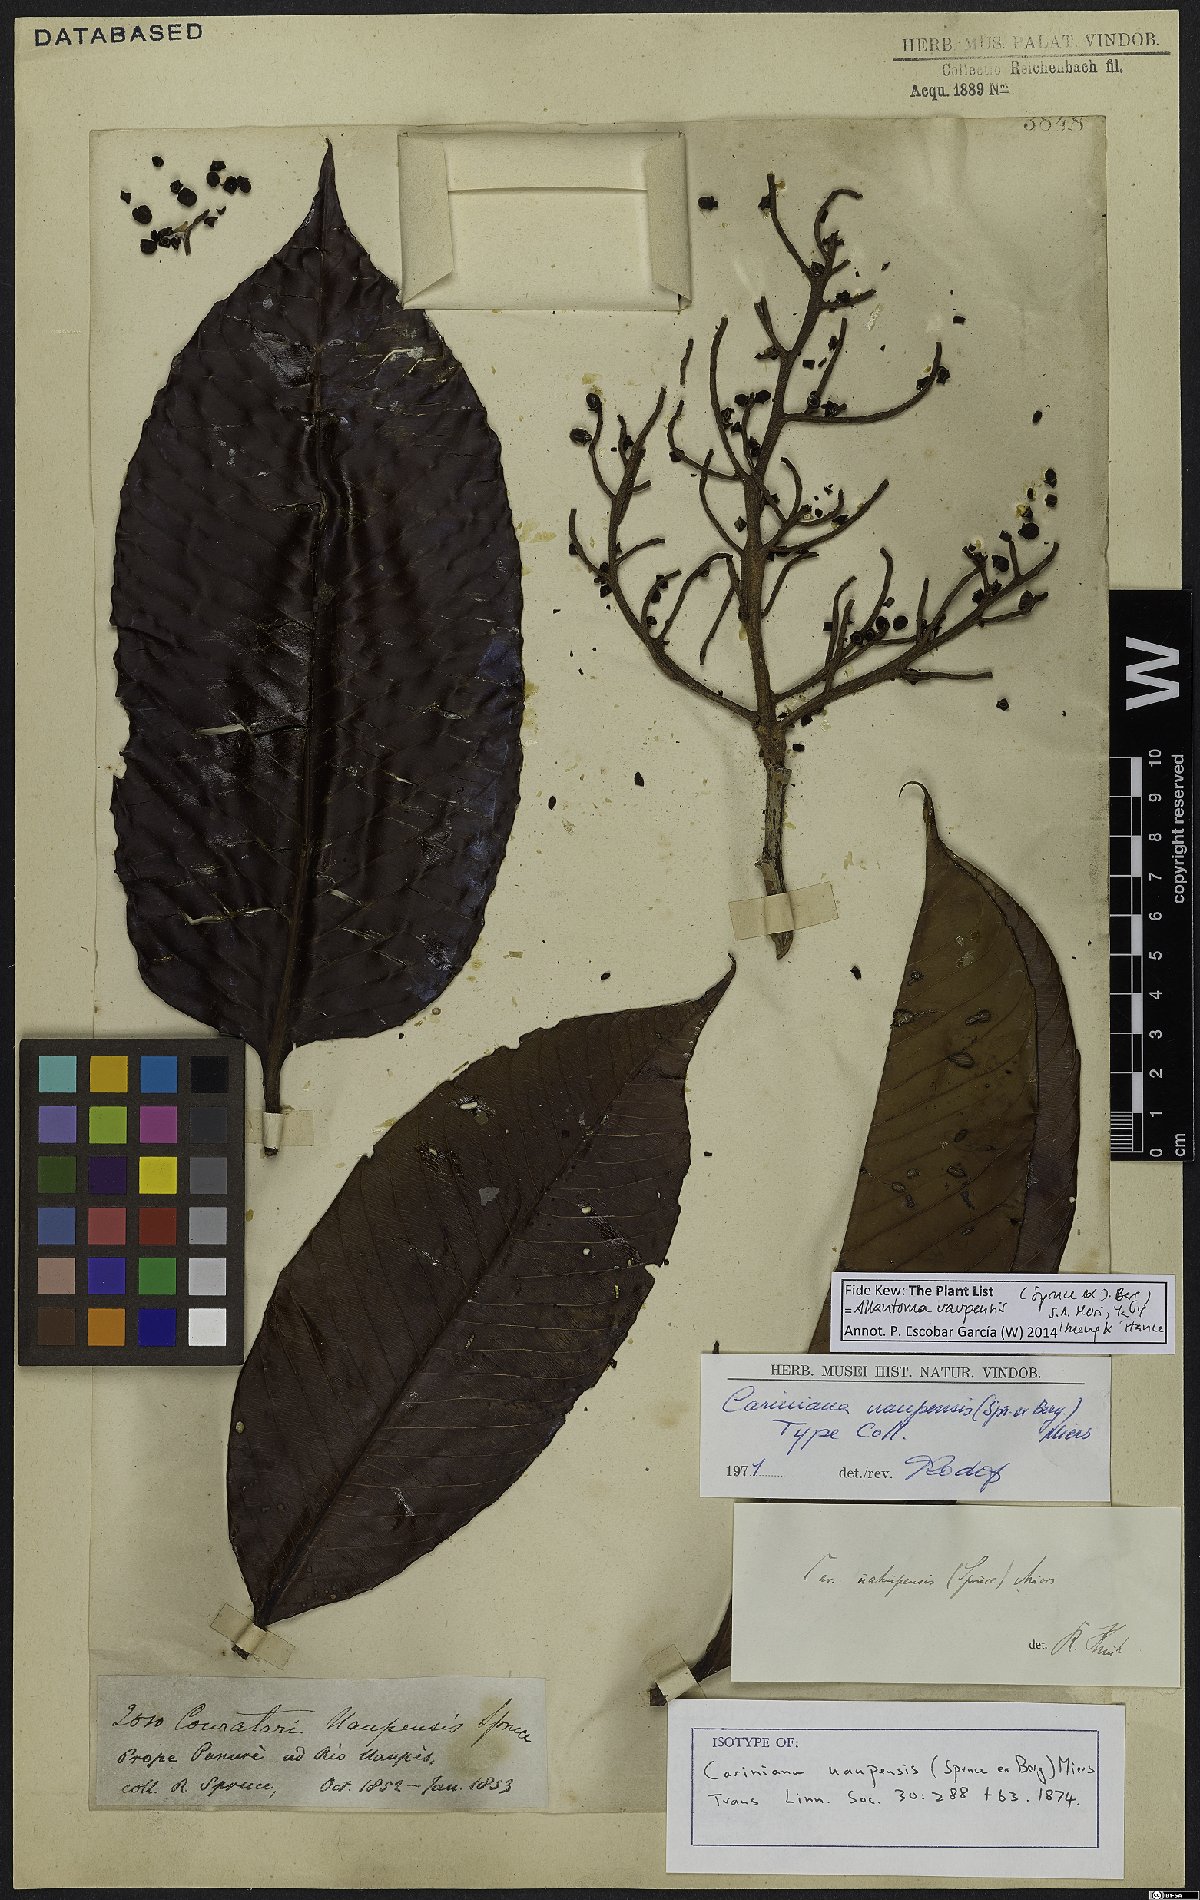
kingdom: Plantae
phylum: Tracheophyta
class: Magnoliopsida
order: Ericales
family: Lecythidaceae
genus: Allantoma
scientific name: Allantoma uaupensis
